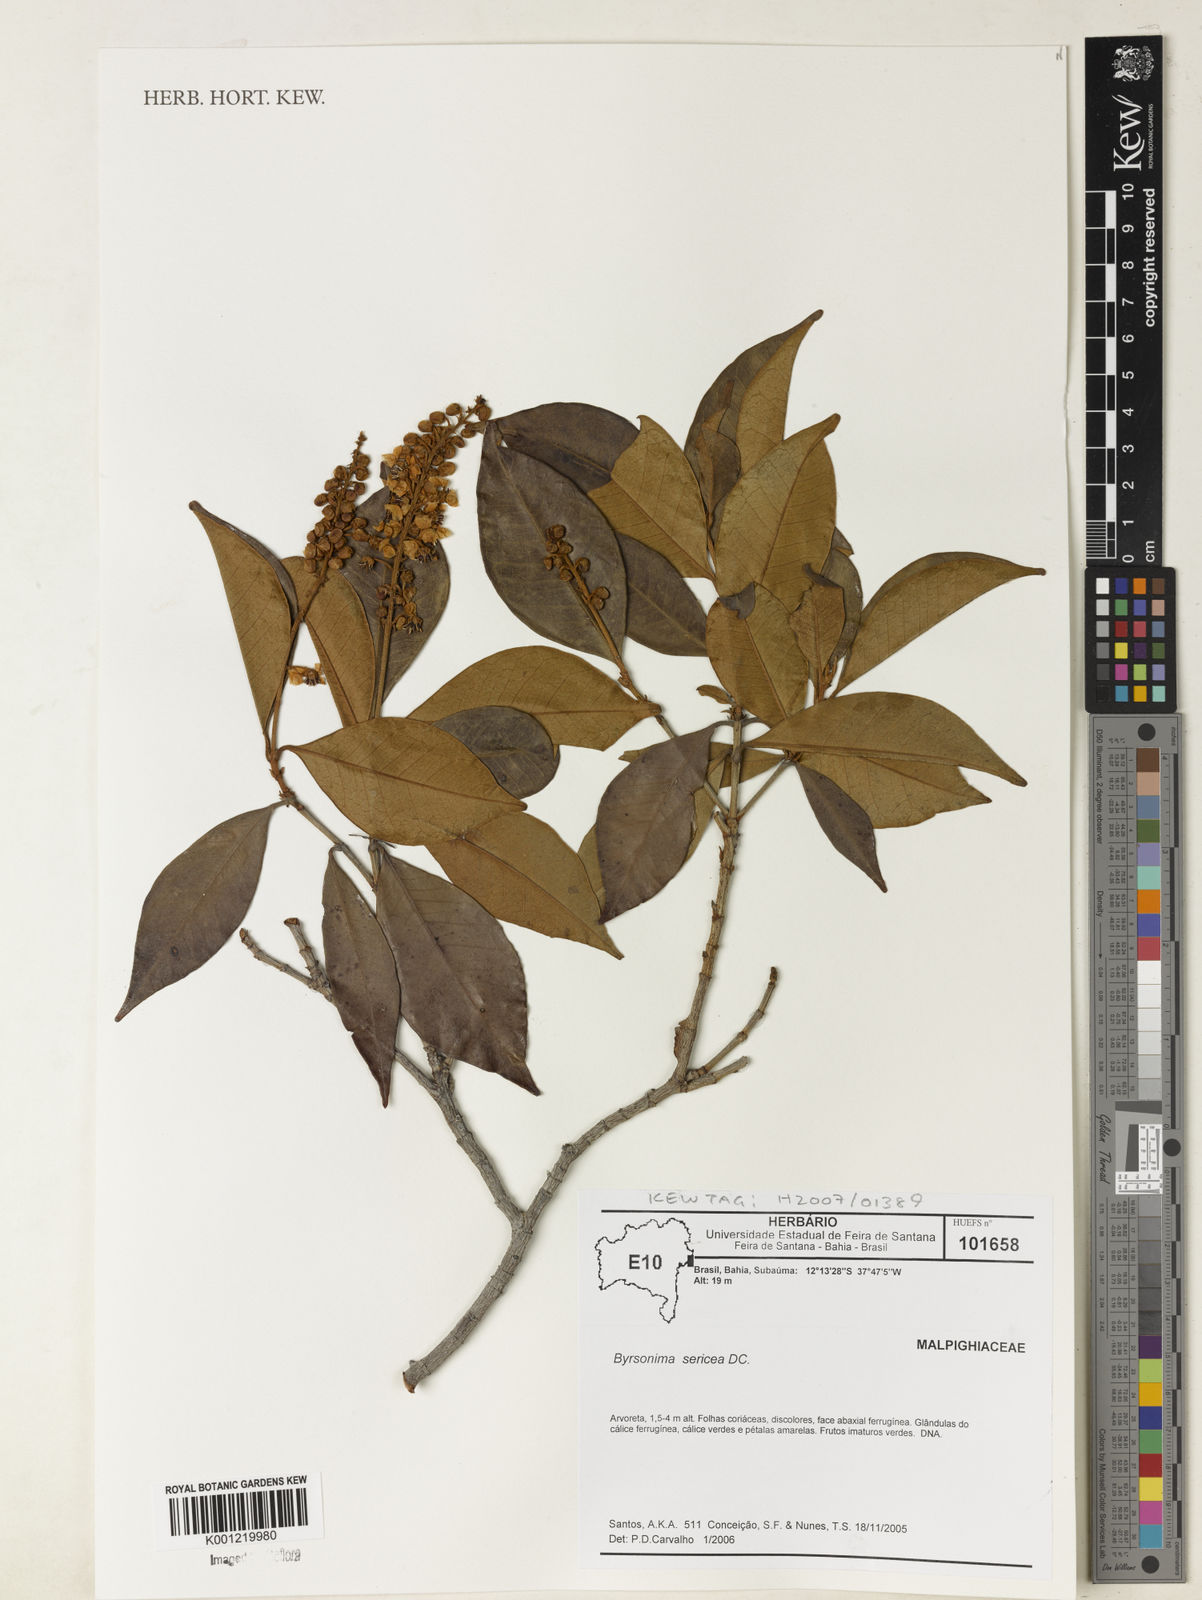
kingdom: Plantae
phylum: Tracheophyta
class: Magnoliopsida
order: Malpighiales
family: Malpighiaceae
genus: Byrsonima
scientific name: Byrsonima sericea
